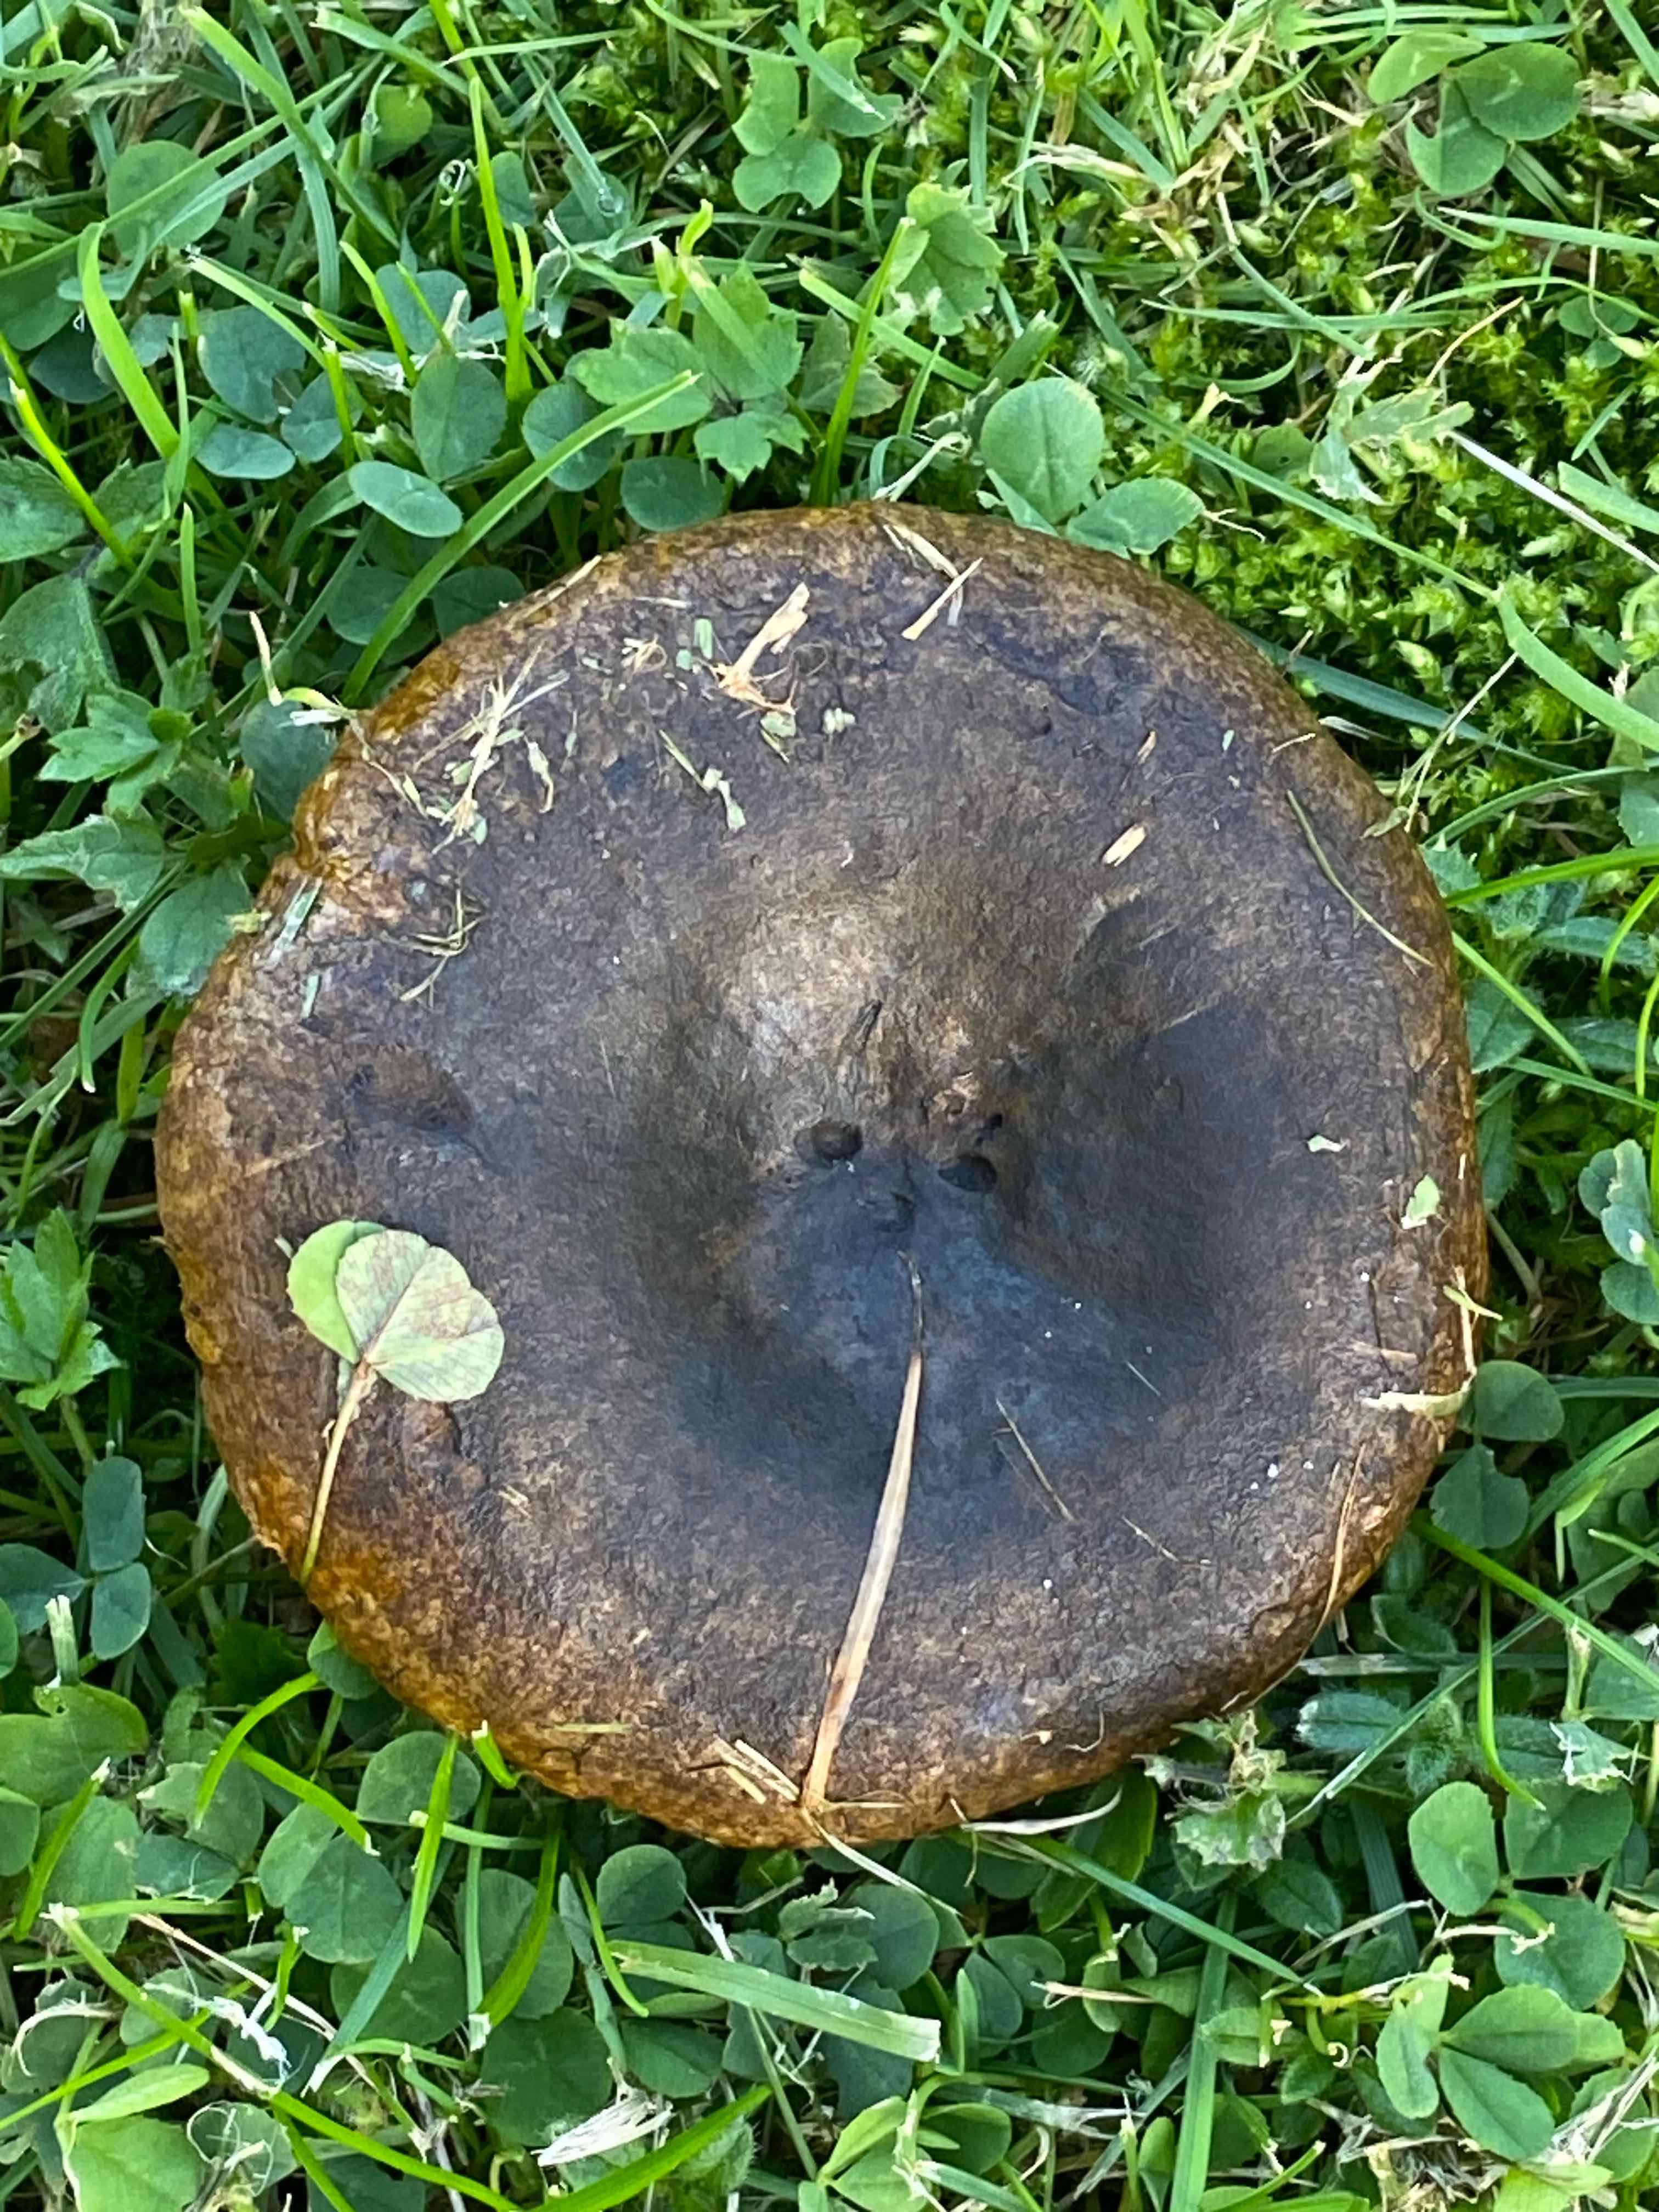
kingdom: Fungi
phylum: Basidiomycota
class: Agaricomycetes
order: Russulales
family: Russulaceae
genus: Lactarius
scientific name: Lactarius necator
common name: manddraber-mælkehat
